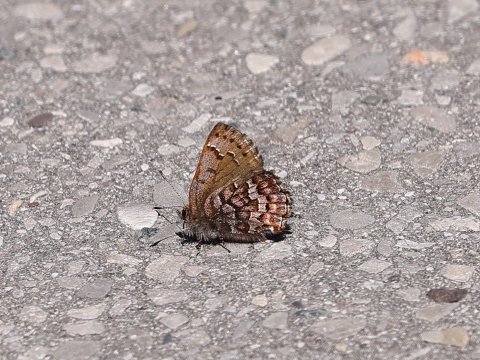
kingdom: Animalia
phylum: Arthropoda
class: Insecta
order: Lepidoptera
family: Lycaenidae
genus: Incisalia
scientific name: Incisalia niphon
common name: Eastern Pine Elfin
